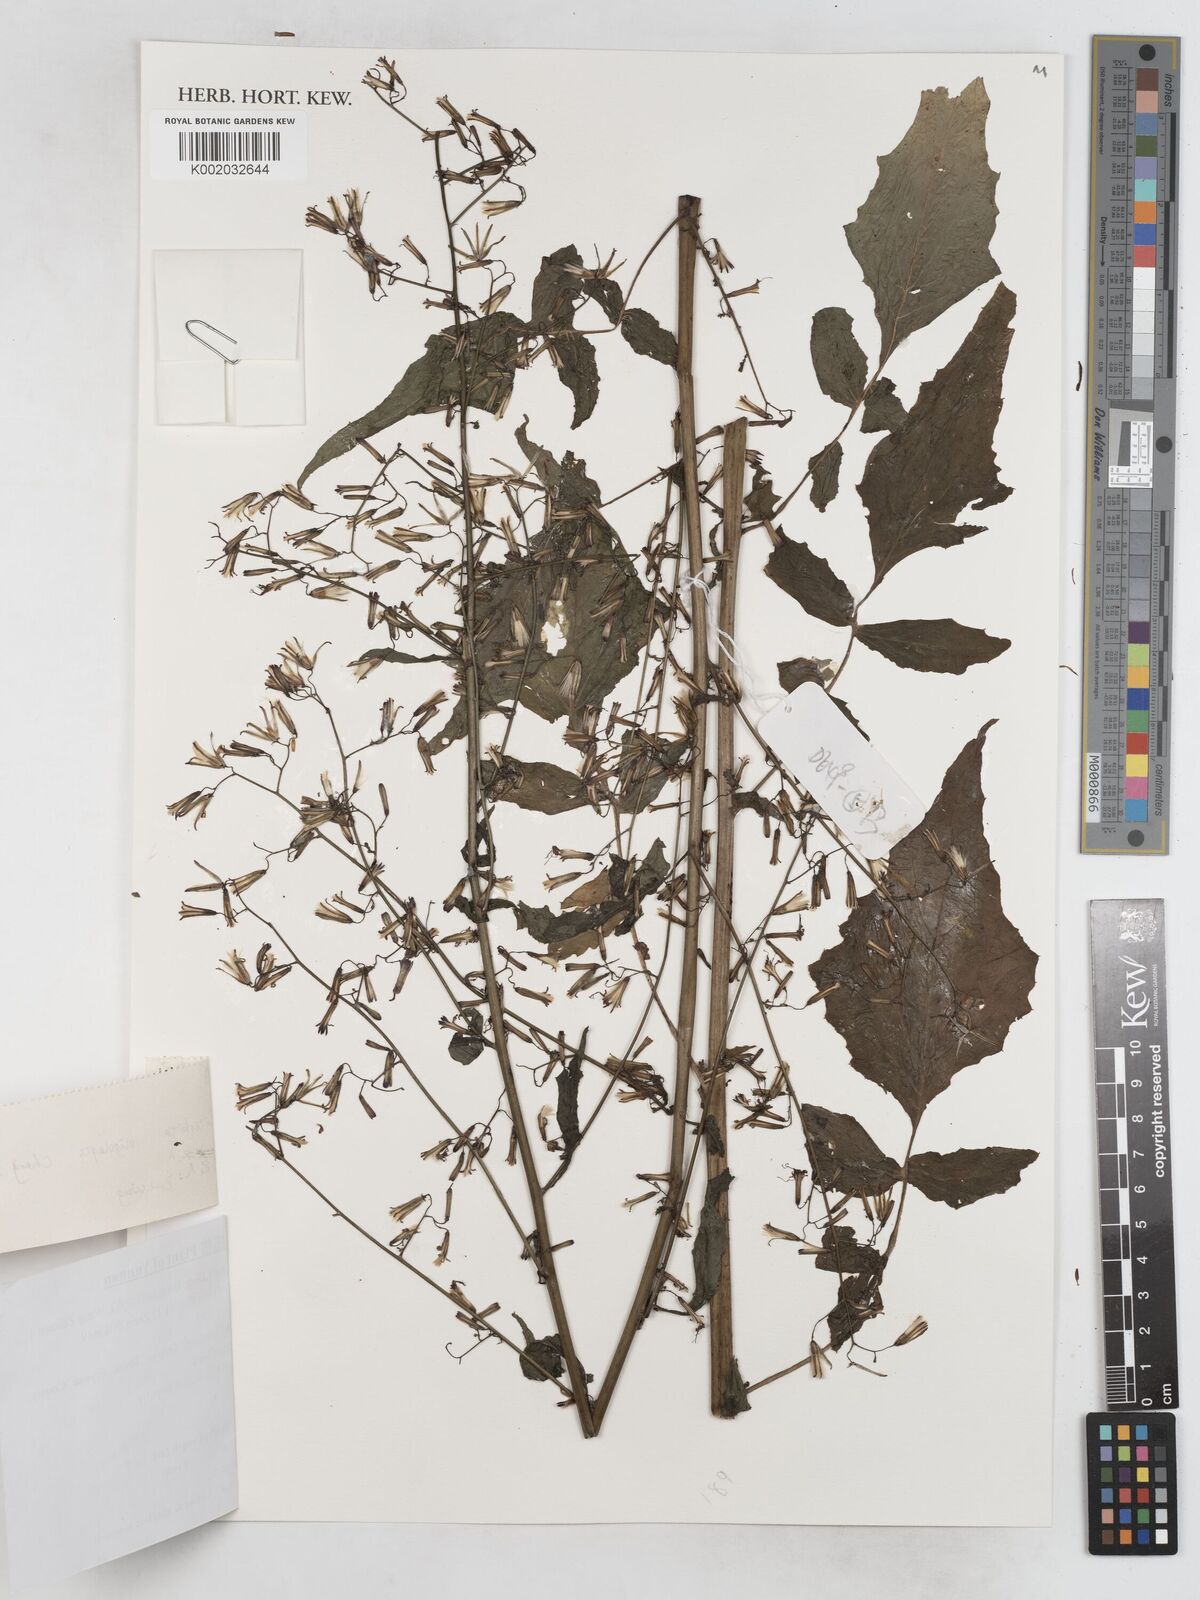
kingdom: Plantae
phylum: Tracheophyta
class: Magnoliopsida
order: Asterales
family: Asteraceae
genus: Paraprenanthes
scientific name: Paraprenanthes oligolepis
